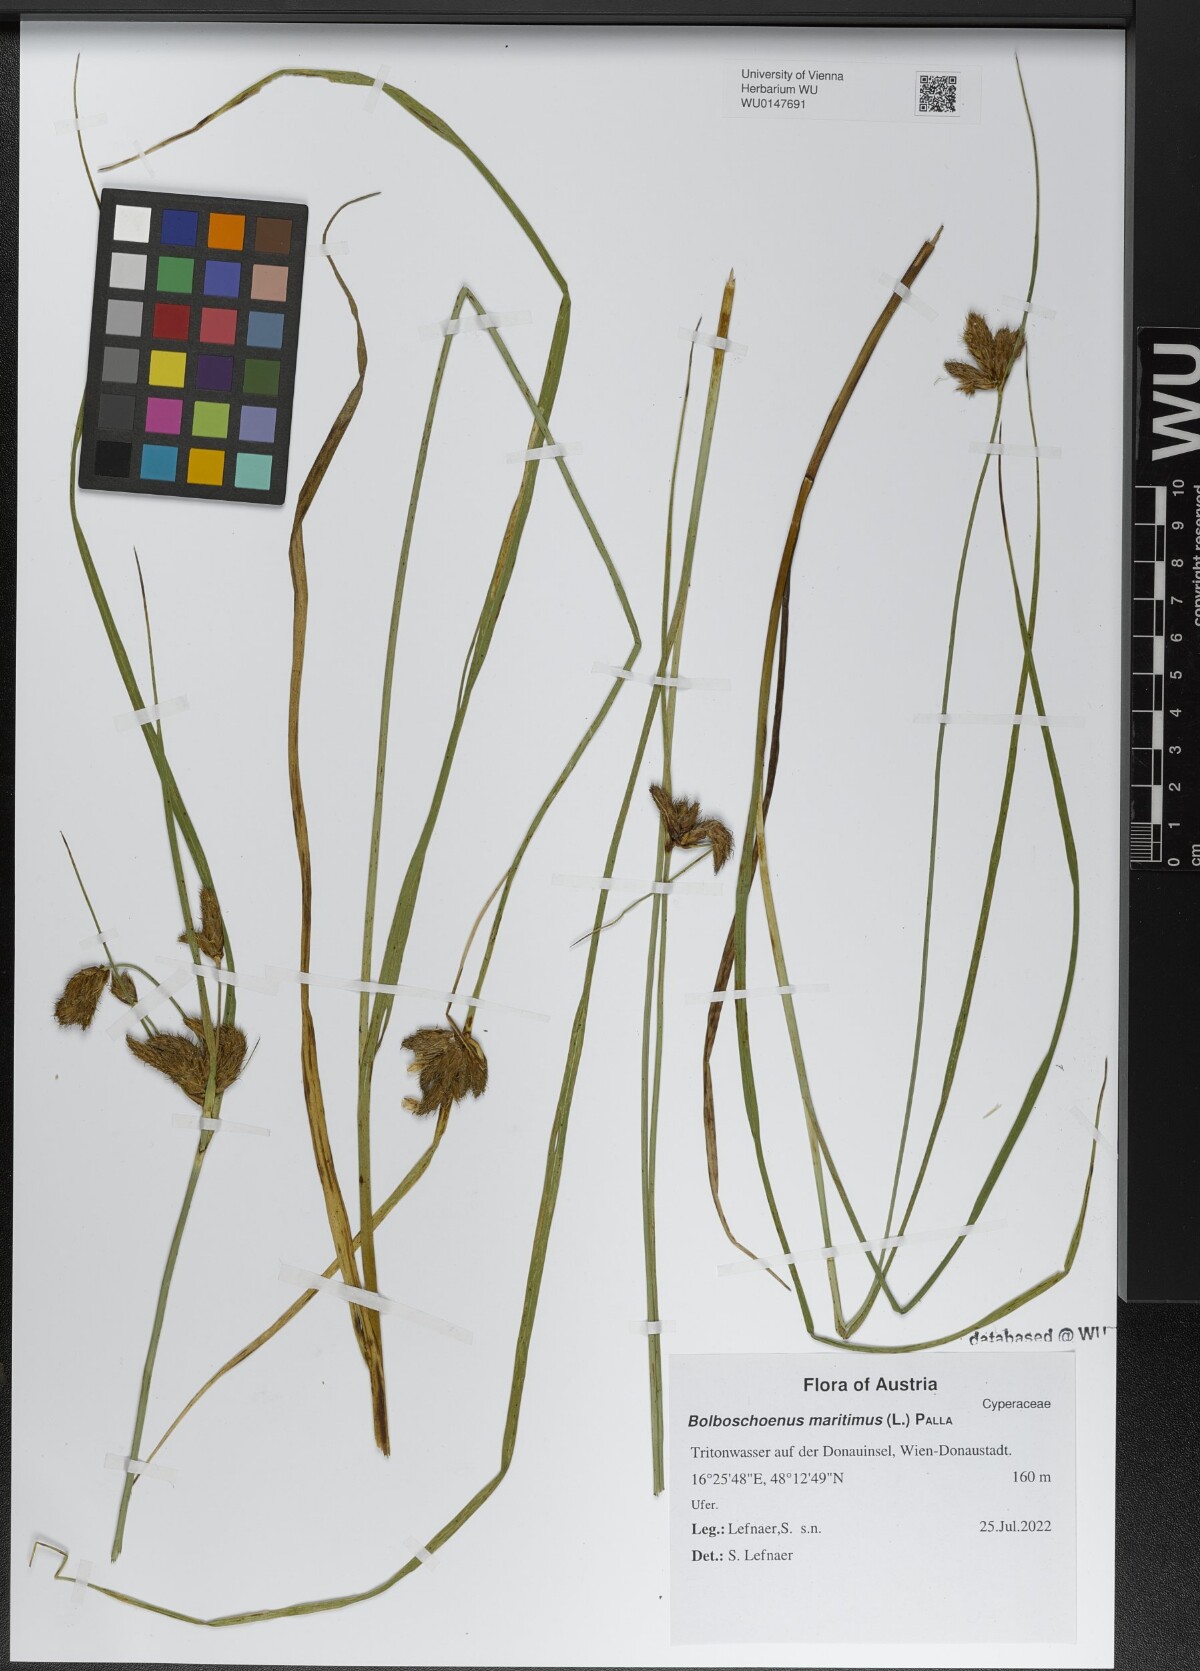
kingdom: Plantae
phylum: Tracheophyta
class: Liliopsida
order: Poales
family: Cyperaceae
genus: Bolboschoenus
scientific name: Bolboschoenus maritimus
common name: Sea club-rush
